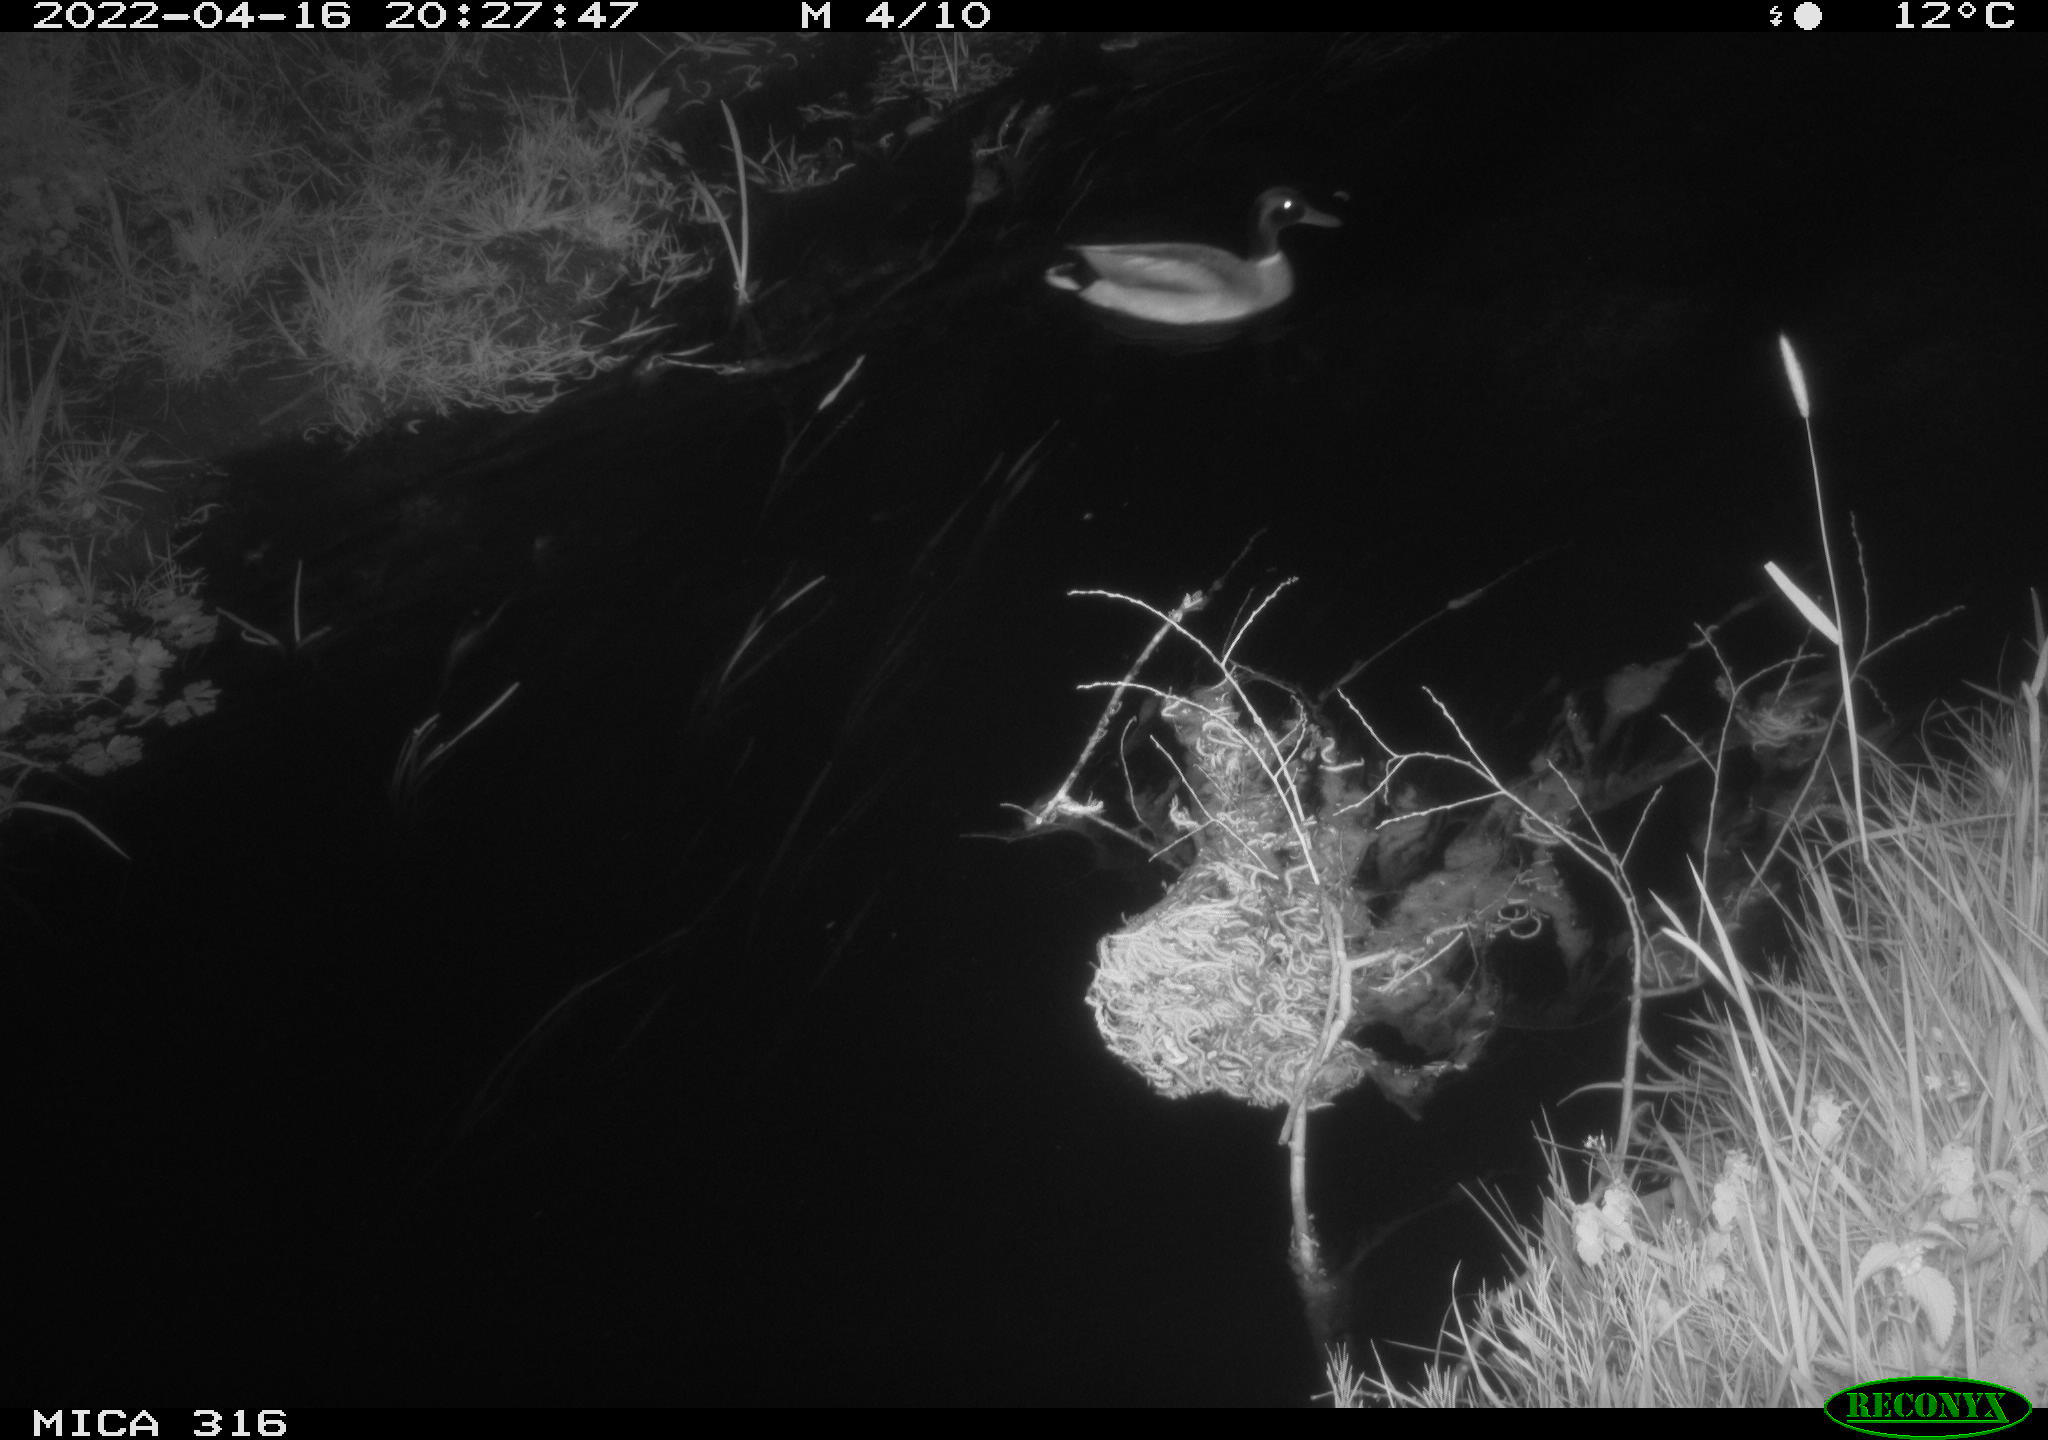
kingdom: Animalia
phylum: Chordata
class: Aves
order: Anseriformes
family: Anatidae
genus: Anas
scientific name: Anas platyrhynchos
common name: Mallard
